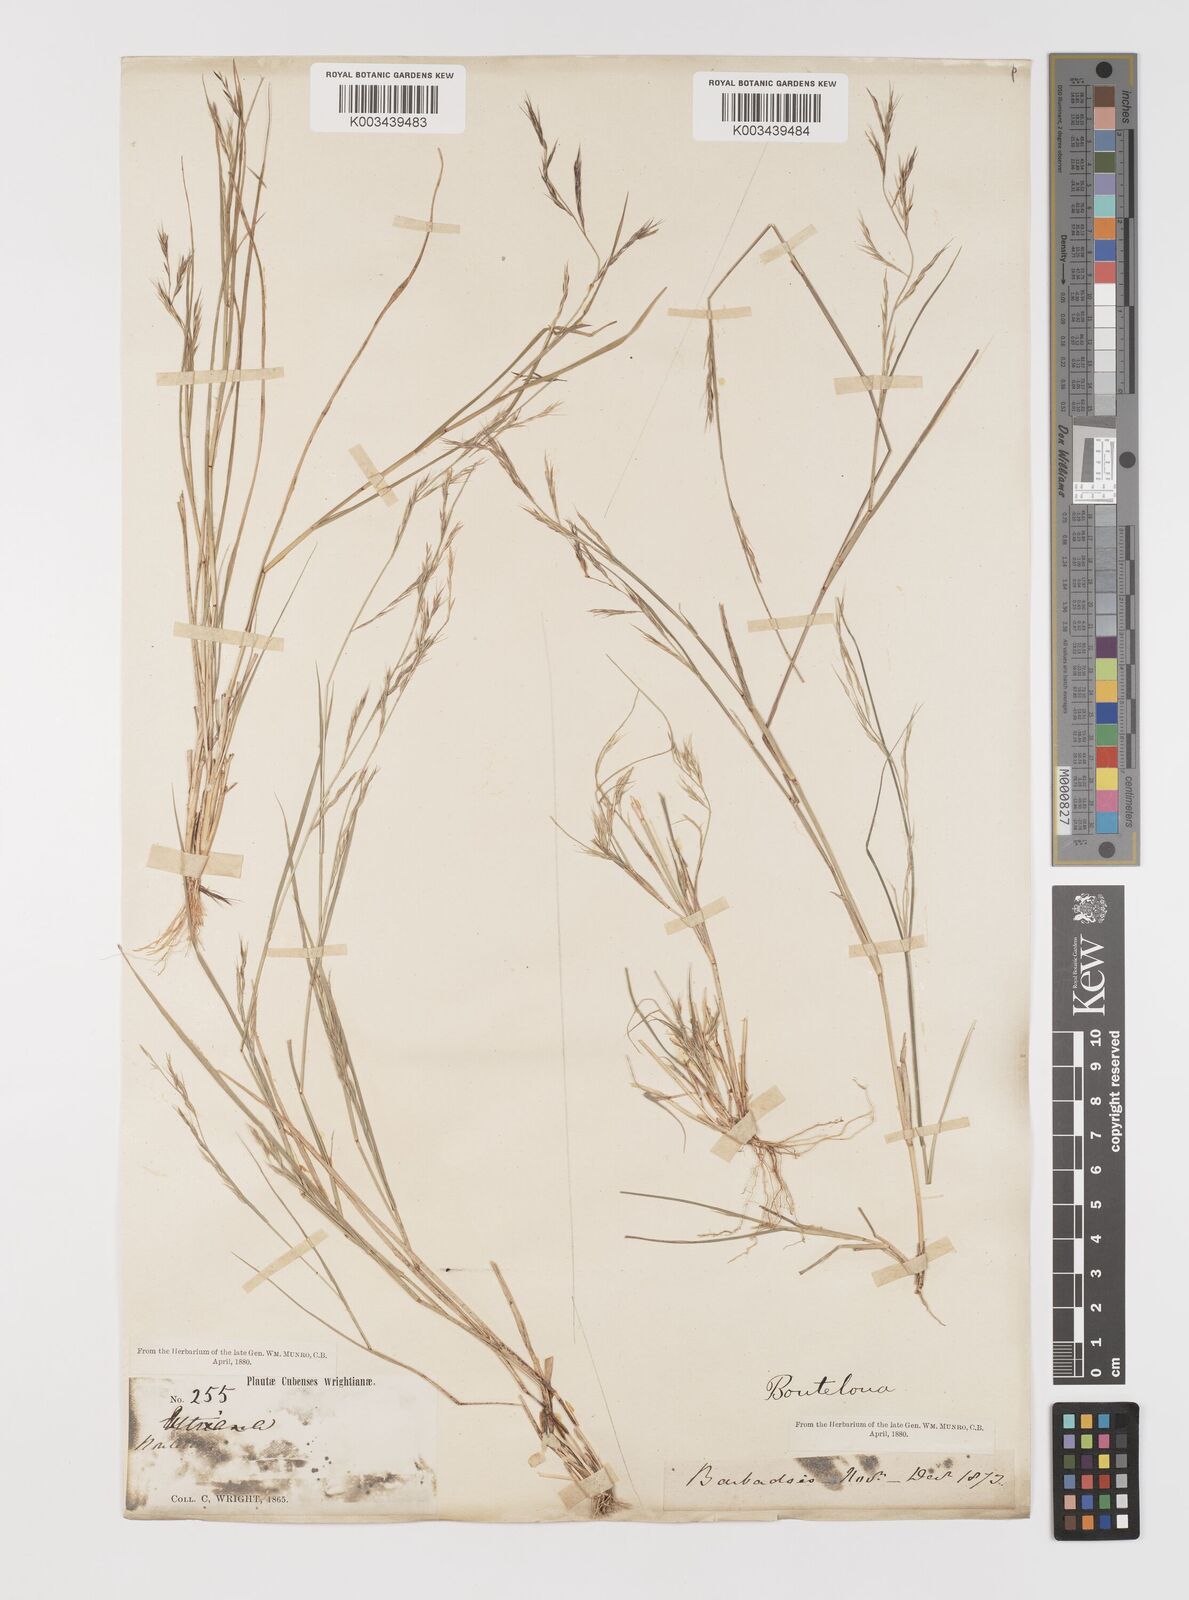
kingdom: Plantae
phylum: Tracheophyta
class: Liliopsida
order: Poales
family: Poaceae
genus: Bouteloua
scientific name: Bouteloua americana
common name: Mule grass
